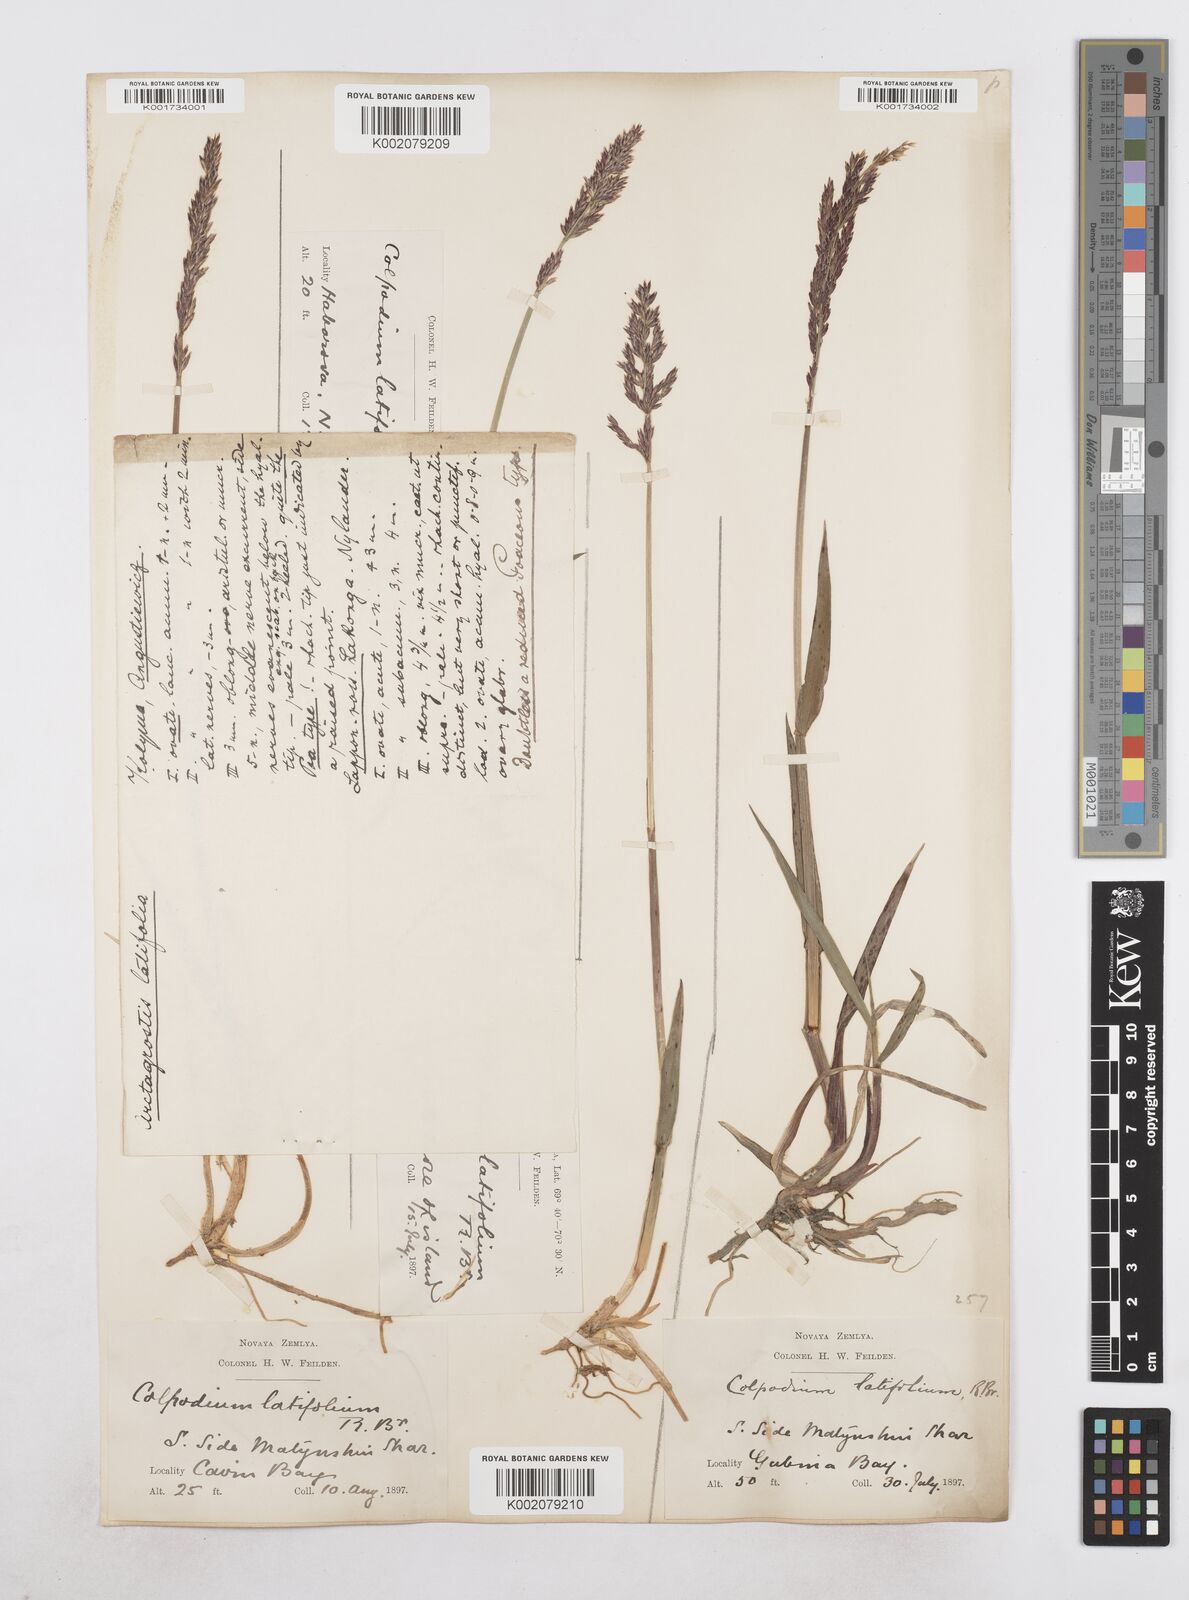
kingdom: Plantae
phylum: Tracheophyta
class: Liliopsida
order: Poales
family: Poaceae
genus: Arctagrostis
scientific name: Arctagrostis latifolia
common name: Arctic grass
